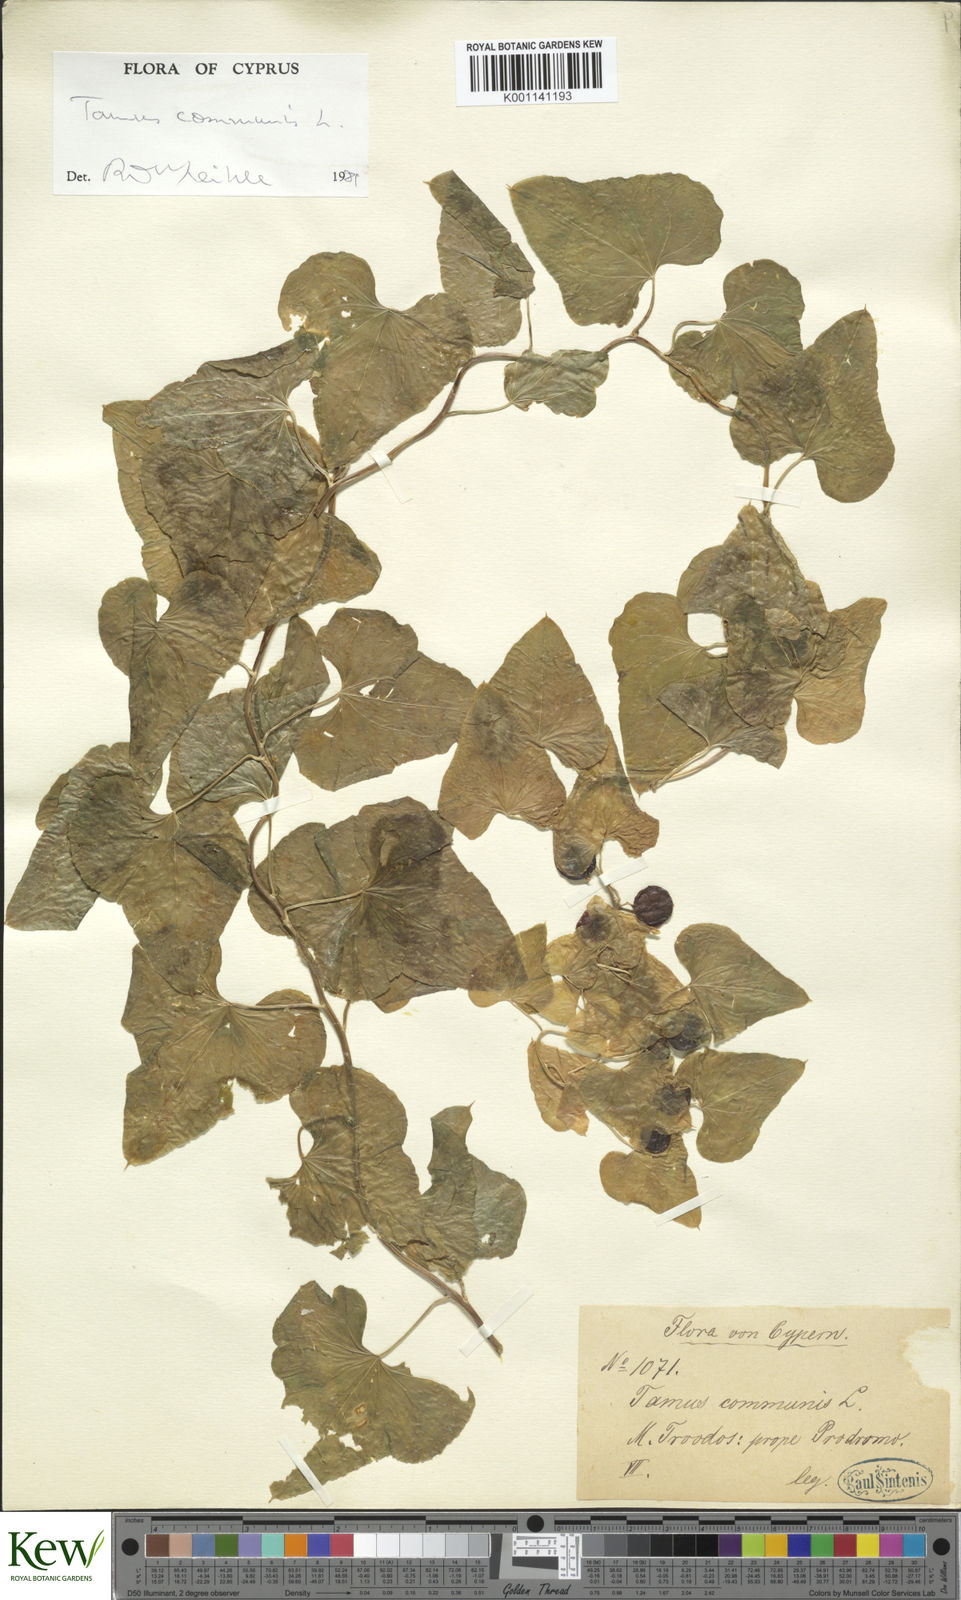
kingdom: Plantae
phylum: Tracheophyta
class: Liliopsida
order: Dioscoreales
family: Dioscoreaceae
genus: Dioscorea
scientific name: Dioscorea communis
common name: Black-bindweed
